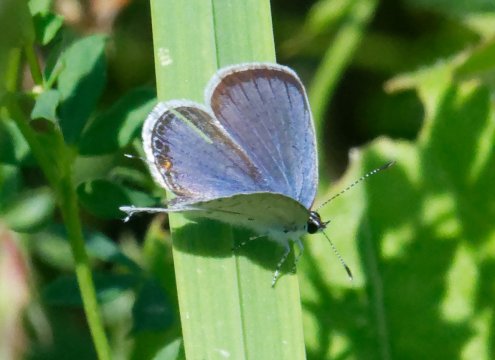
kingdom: Animalia
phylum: Arthropoda
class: Insecta
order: Lepidoptera
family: Lycaenidae
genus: Elkalyce
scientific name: Elkalyce comyntas
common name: Eastern Tailed-Blue
